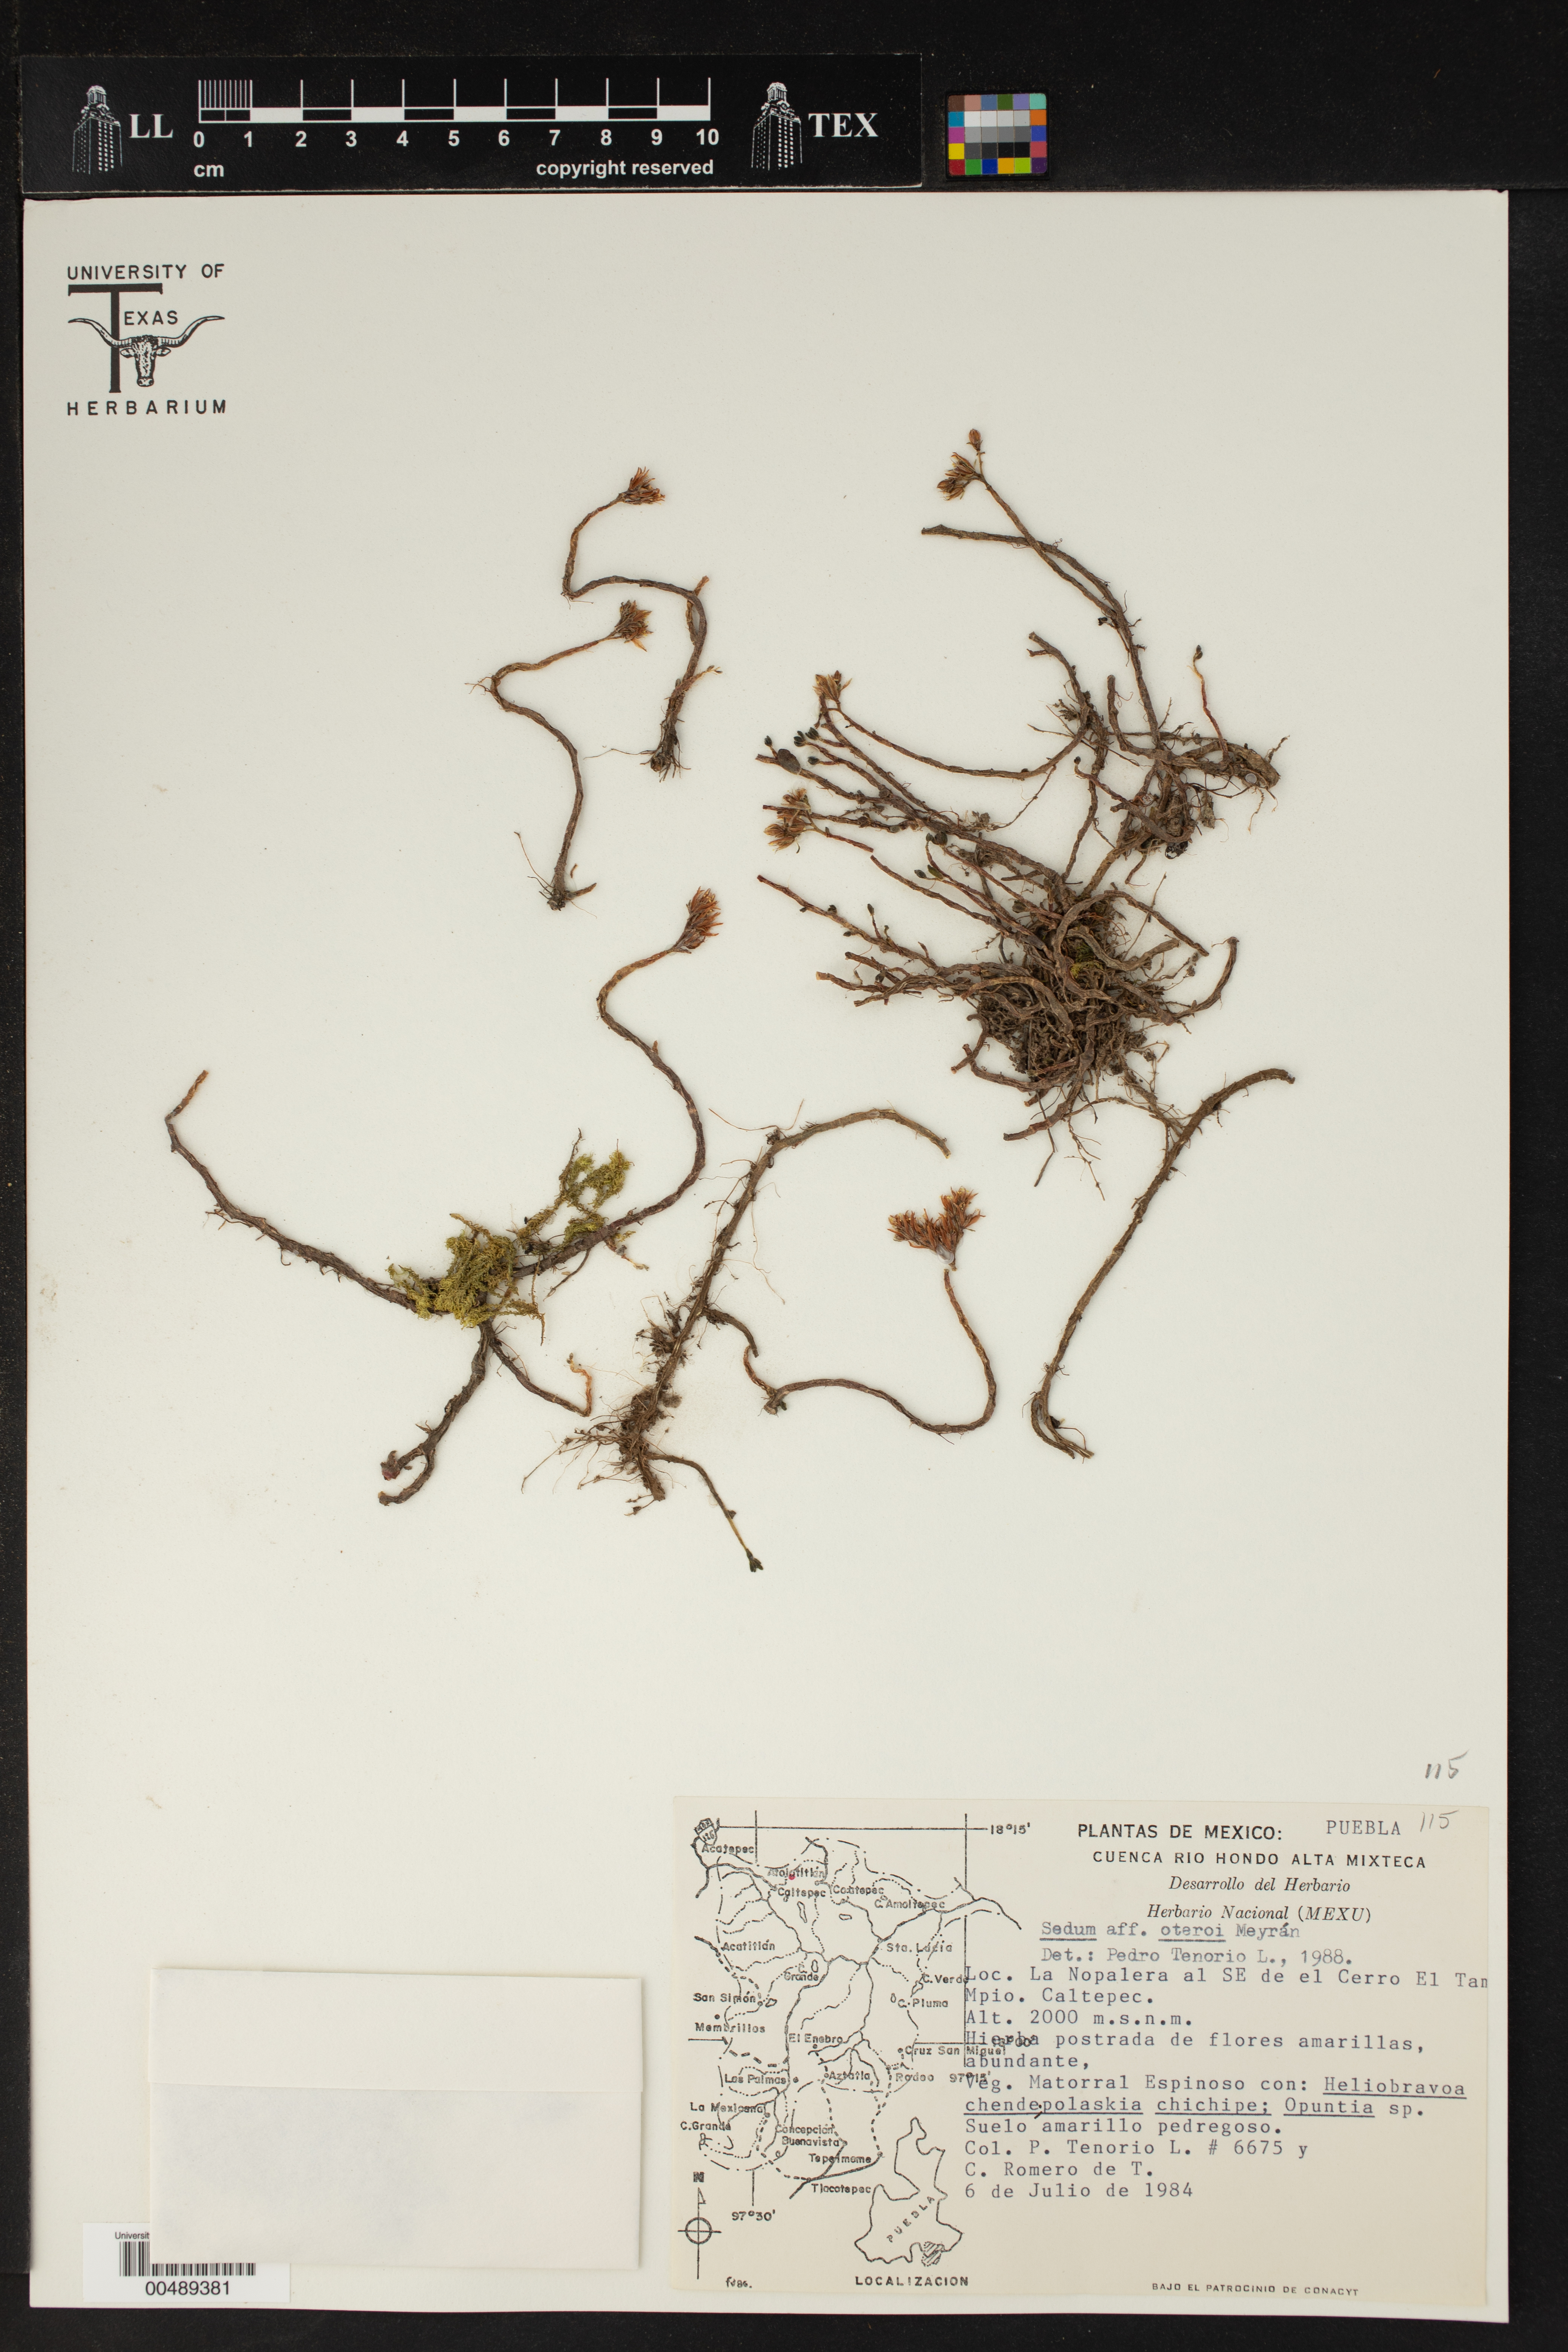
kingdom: Plantae
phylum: Tracheophyta
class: Magnoliopsida
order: Saxifragales
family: Crassulaceae
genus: Sedum
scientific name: Sedum oteroi
